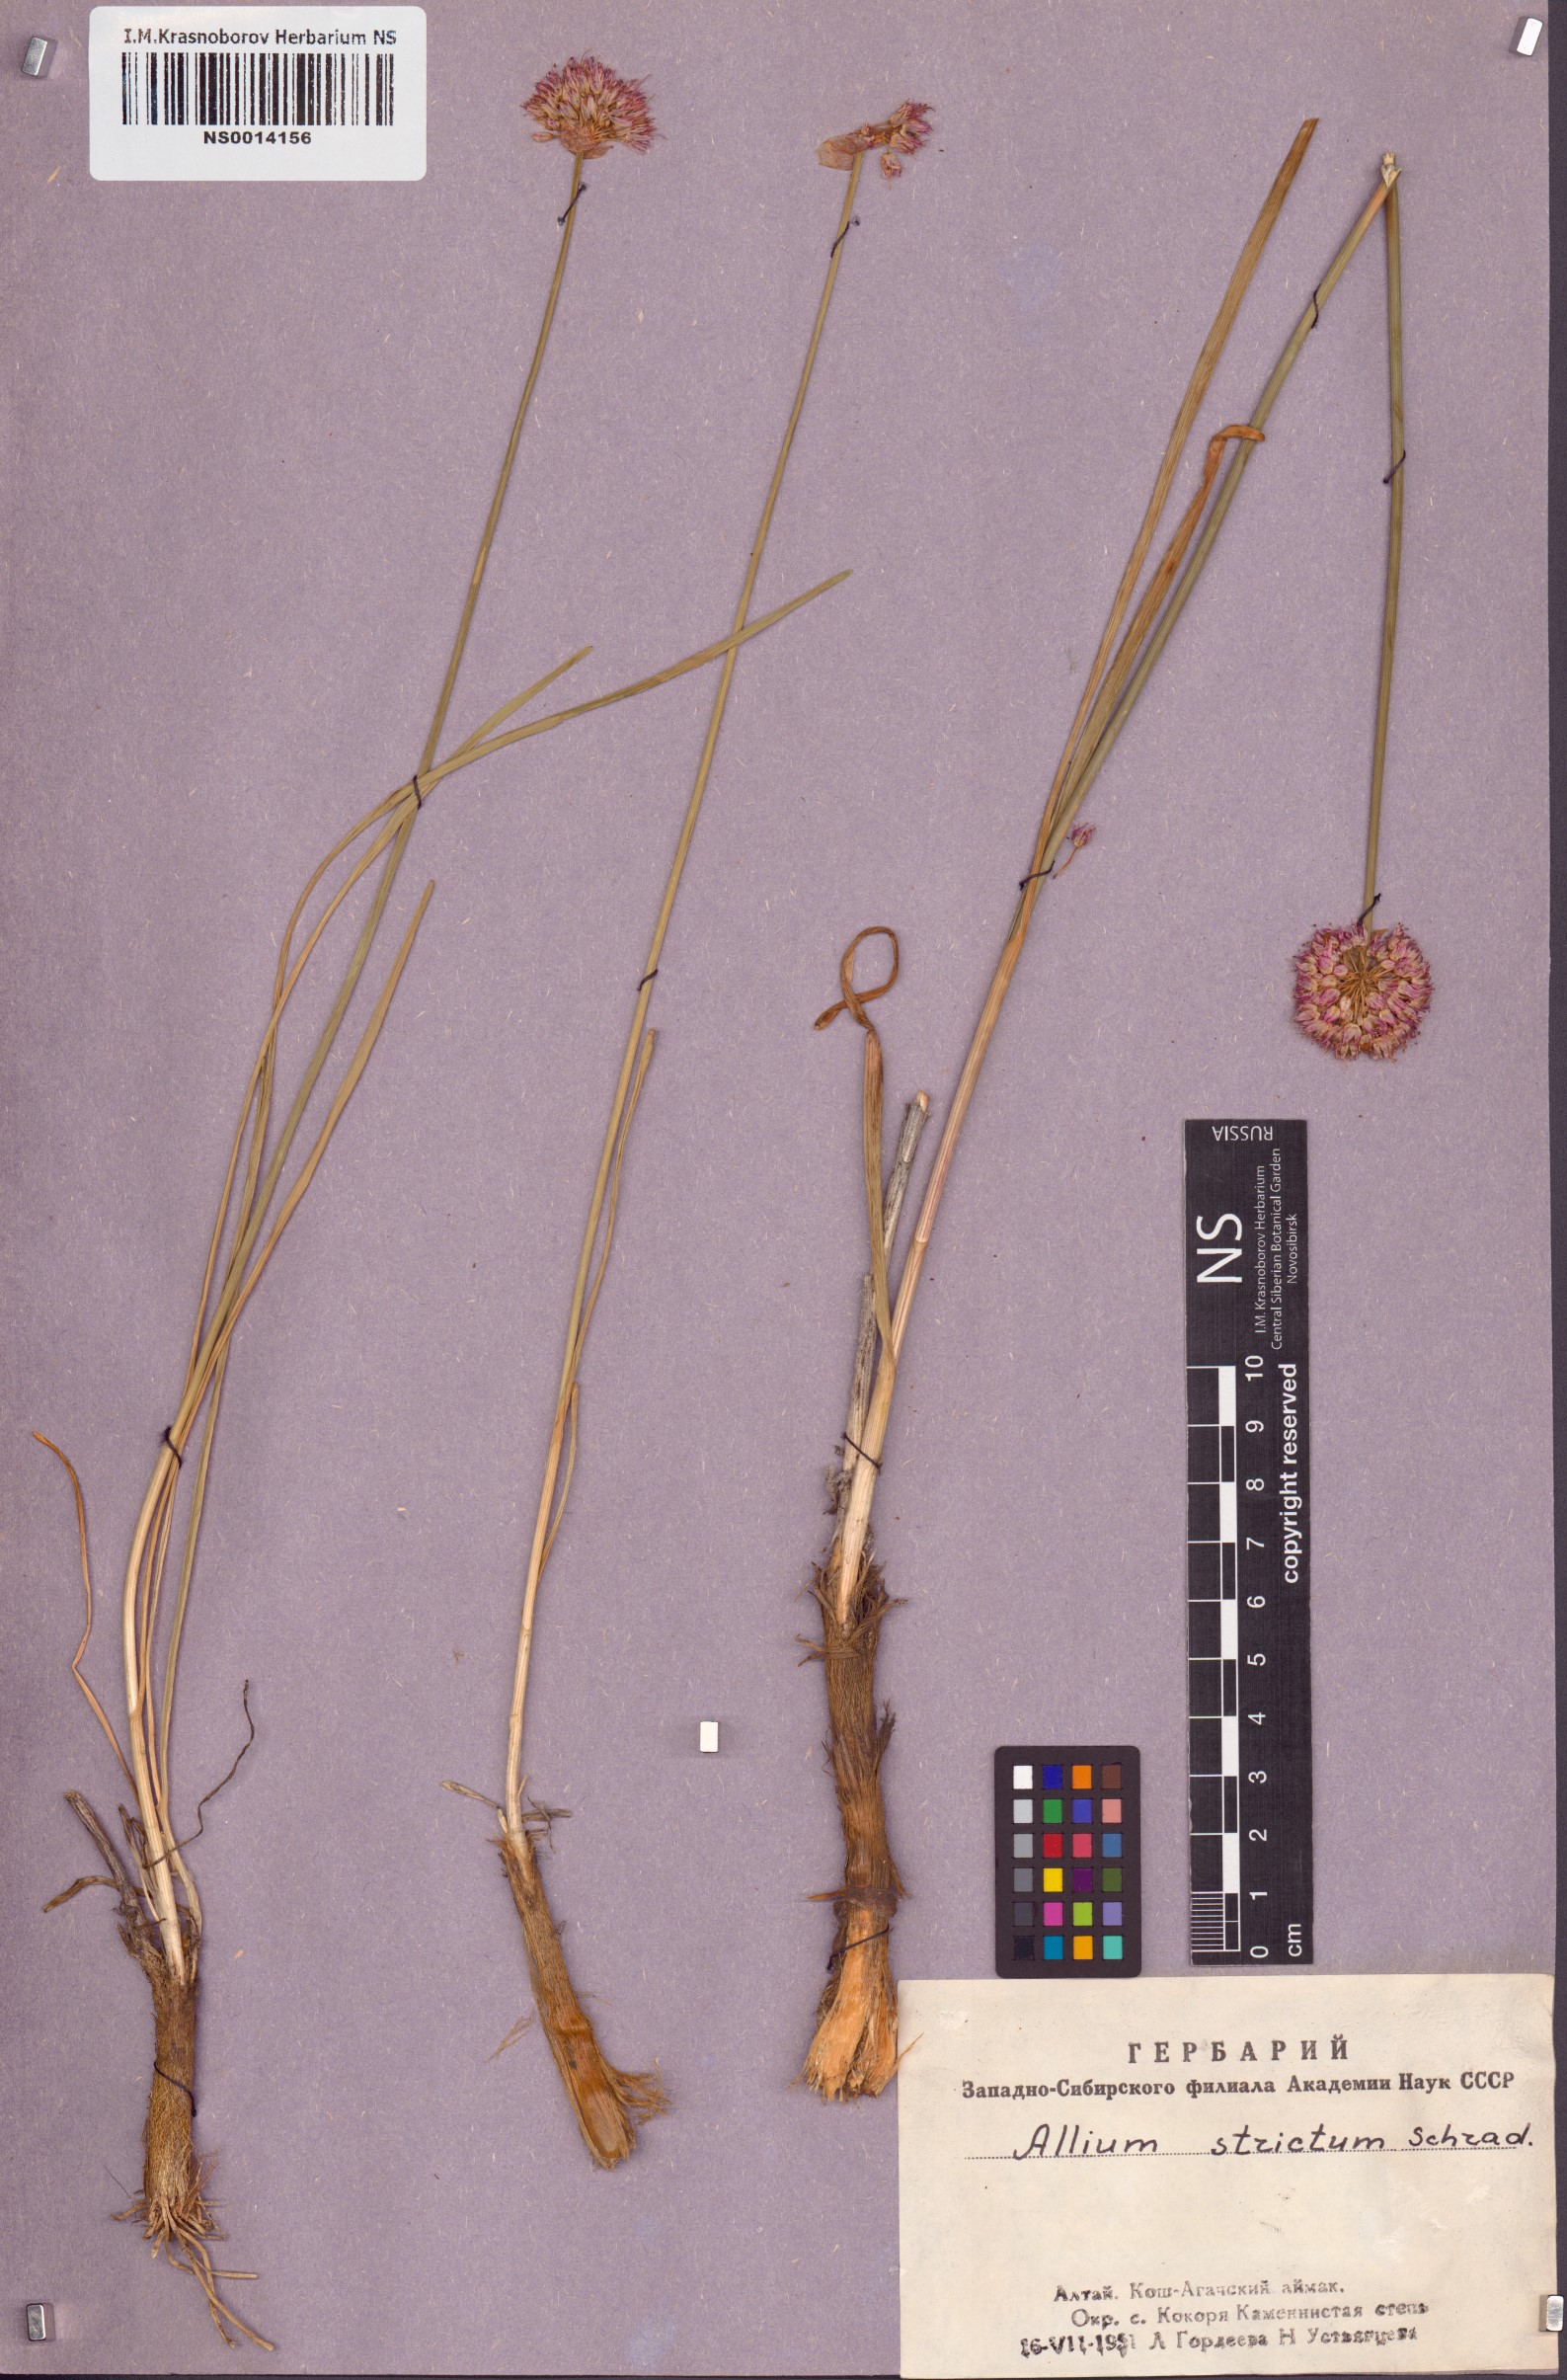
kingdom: Plantae
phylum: Tracheophyta
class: Liliopsida
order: Asparagales
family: Amaryllidaceae
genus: Allium
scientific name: Allium strictum
